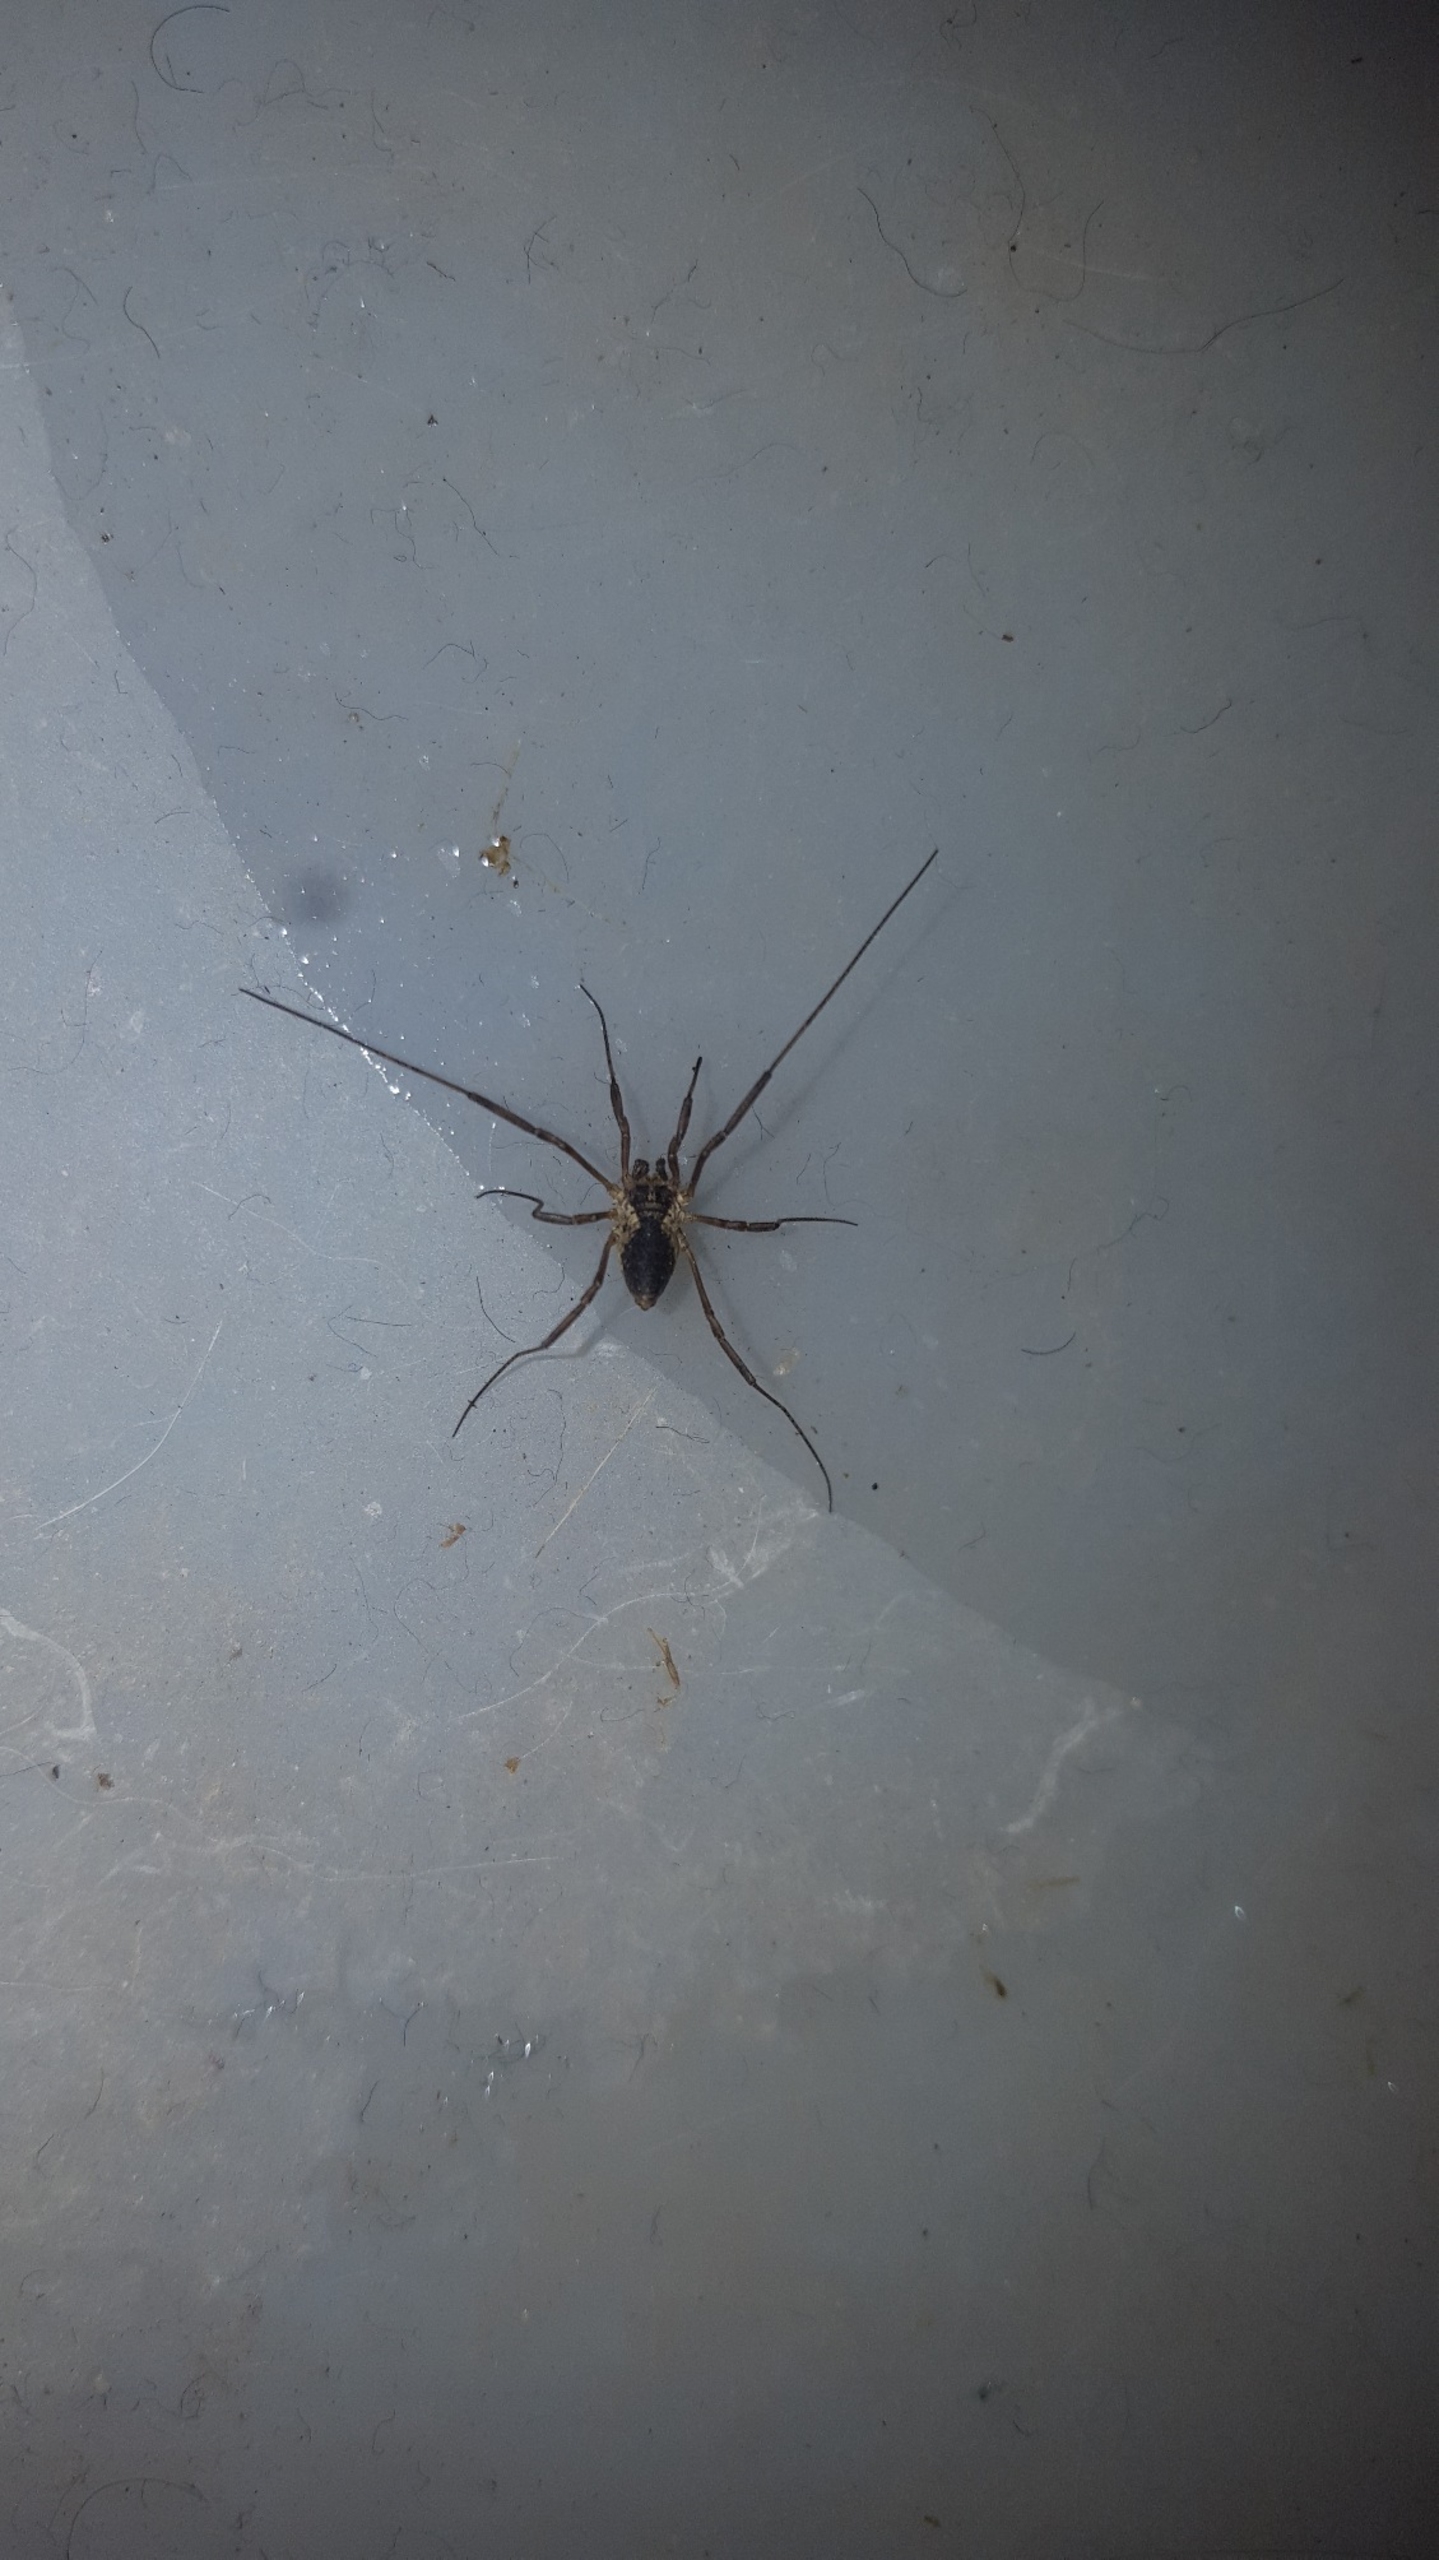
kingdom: Animalia
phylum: Arthropoda
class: Arachnida
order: Opiliones
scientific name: Opiliones
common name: Mejere
